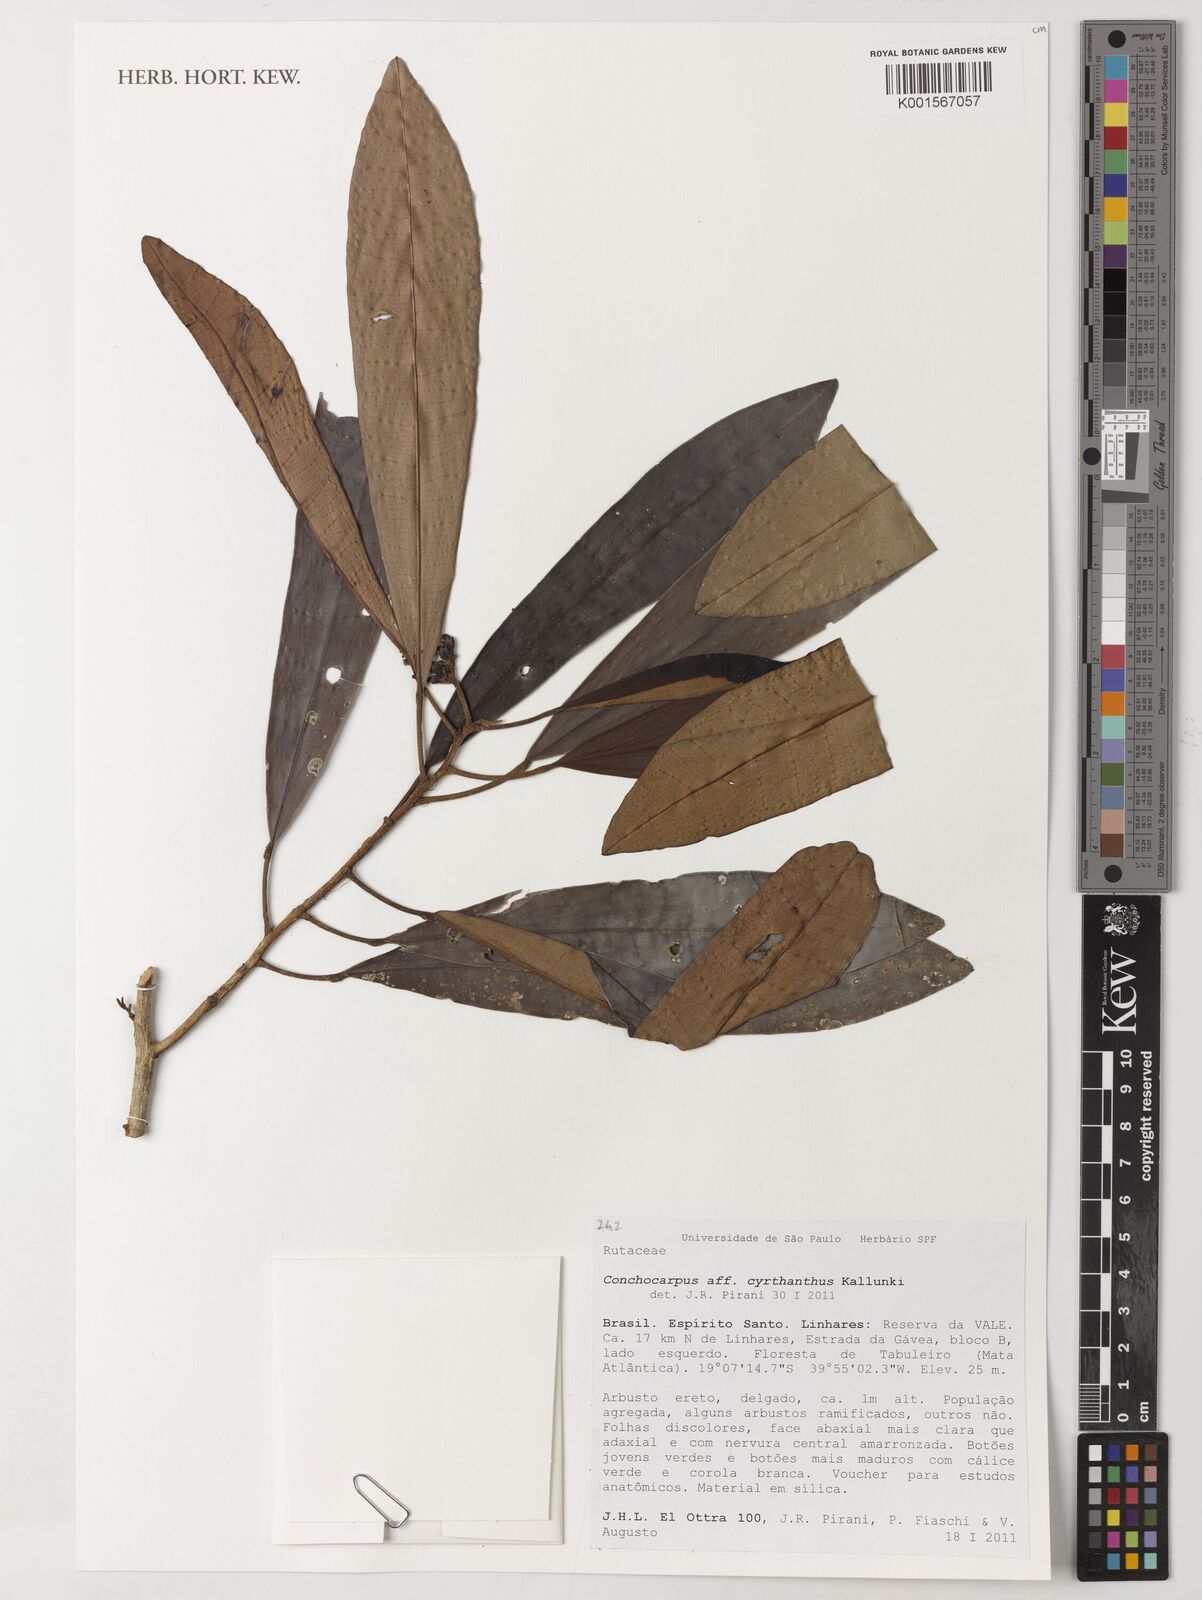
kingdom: Plantae
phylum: Tracheophyta
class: Magnoliopsida
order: Sapindales
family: Rutaceae
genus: Dryades
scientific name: Dryades cyrtantha
